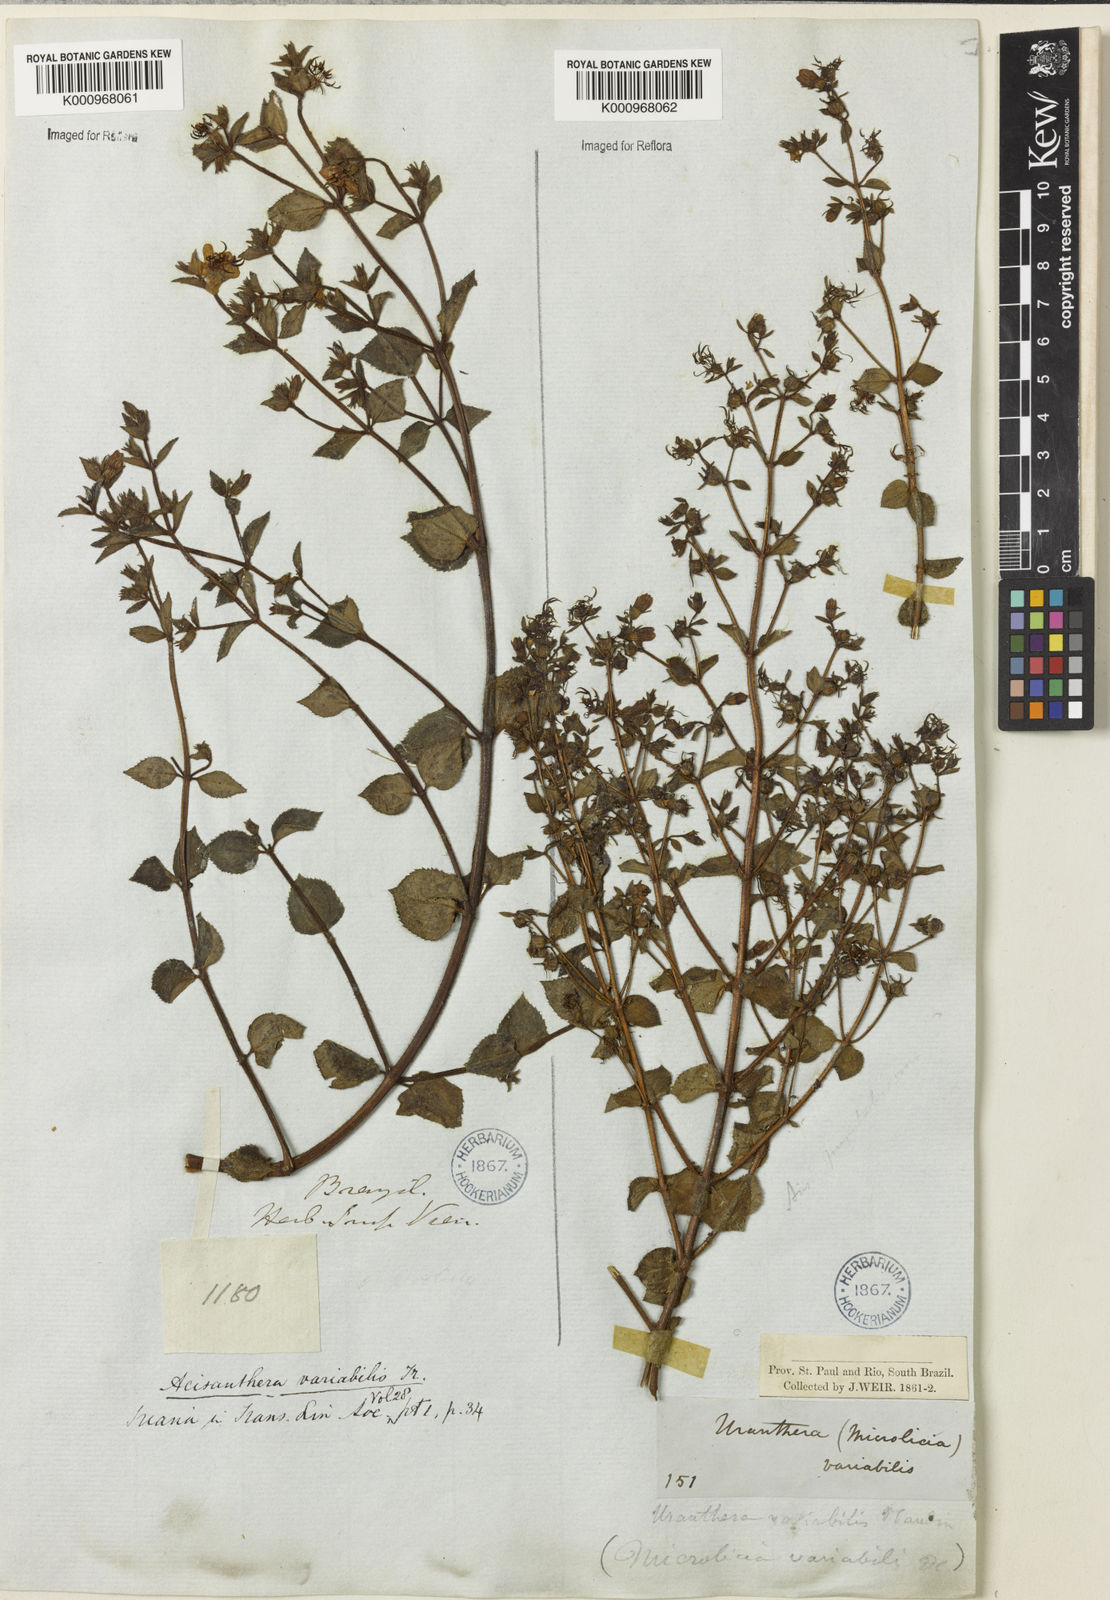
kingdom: Plantae
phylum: Tracheophyta
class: Magnoliopsida
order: Myrtales
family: Melastomataceae
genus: Acisanthera
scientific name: Acisanthera variabilis
